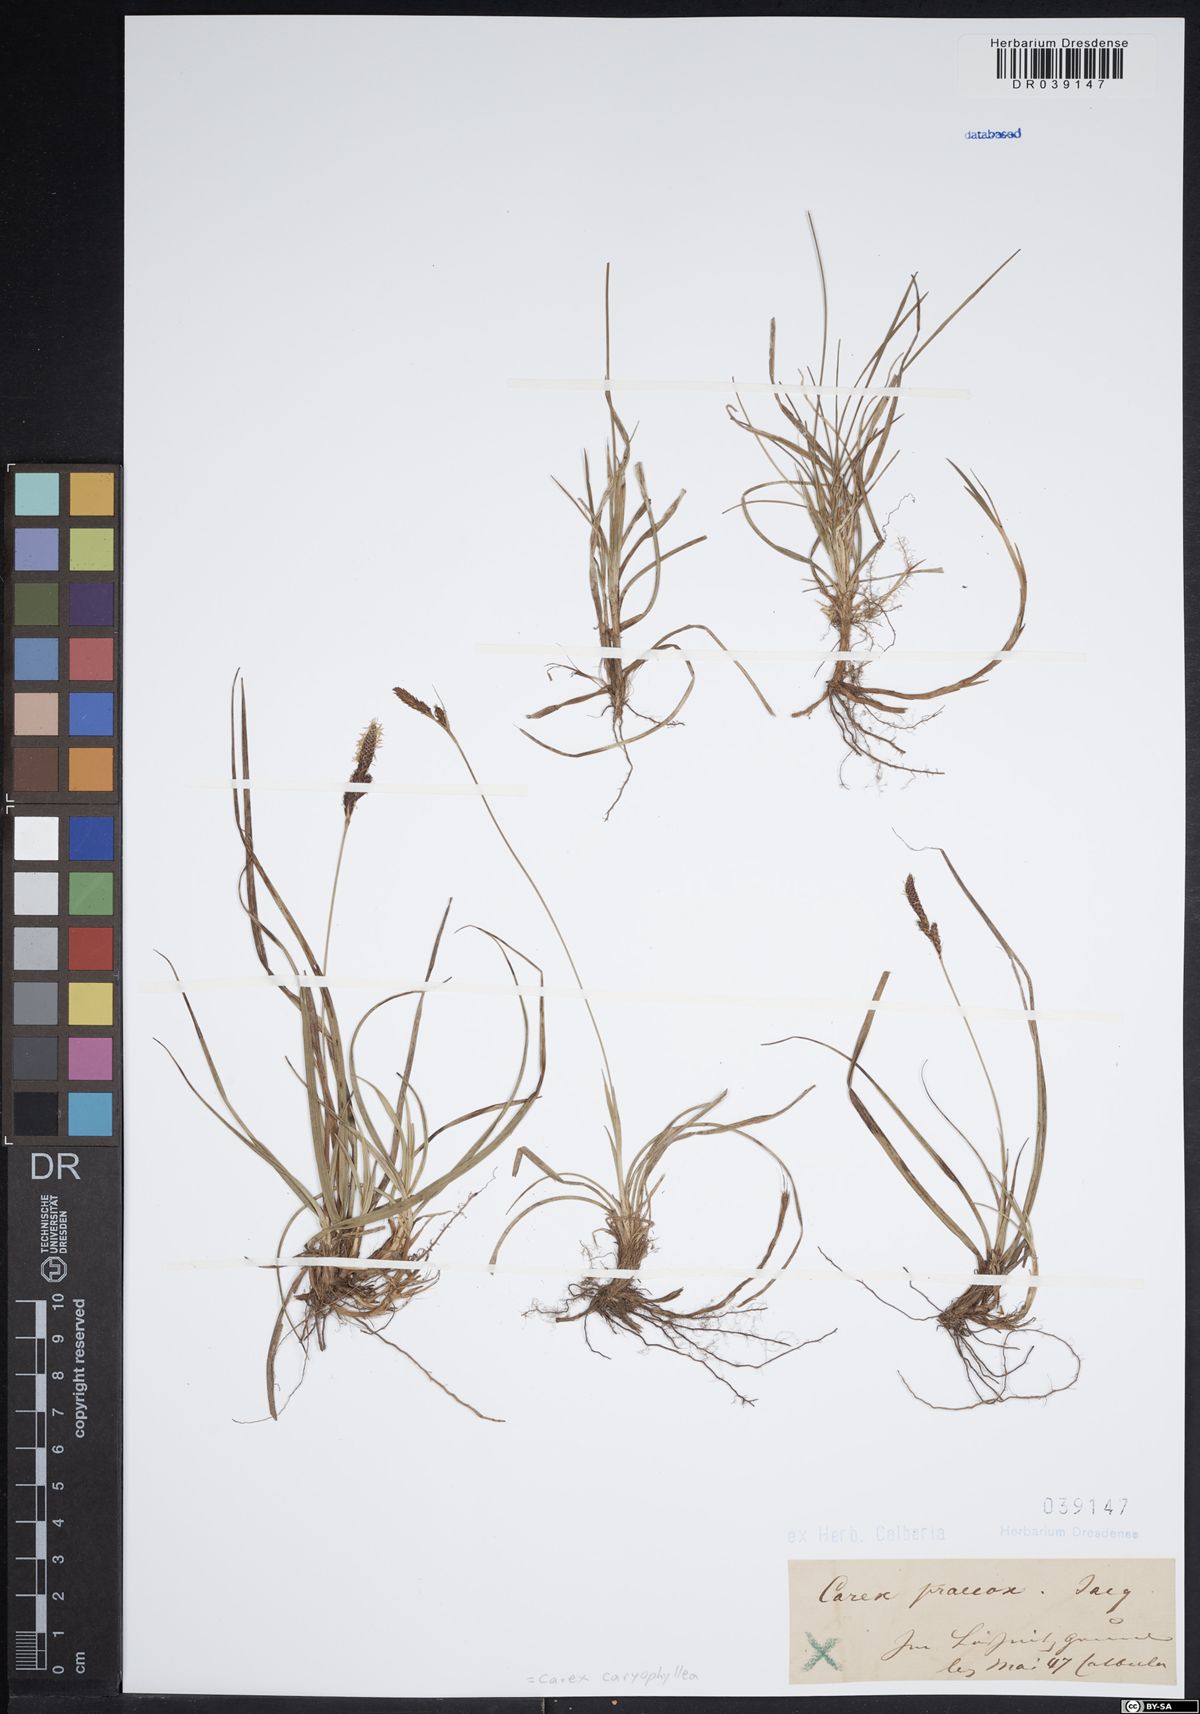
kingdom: Plantae
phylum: Tracheophyta
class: Liliopsida
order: Poales
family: Cyperaceae
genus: Carex
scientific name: Carex caryophyllea
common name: Spring sedge
